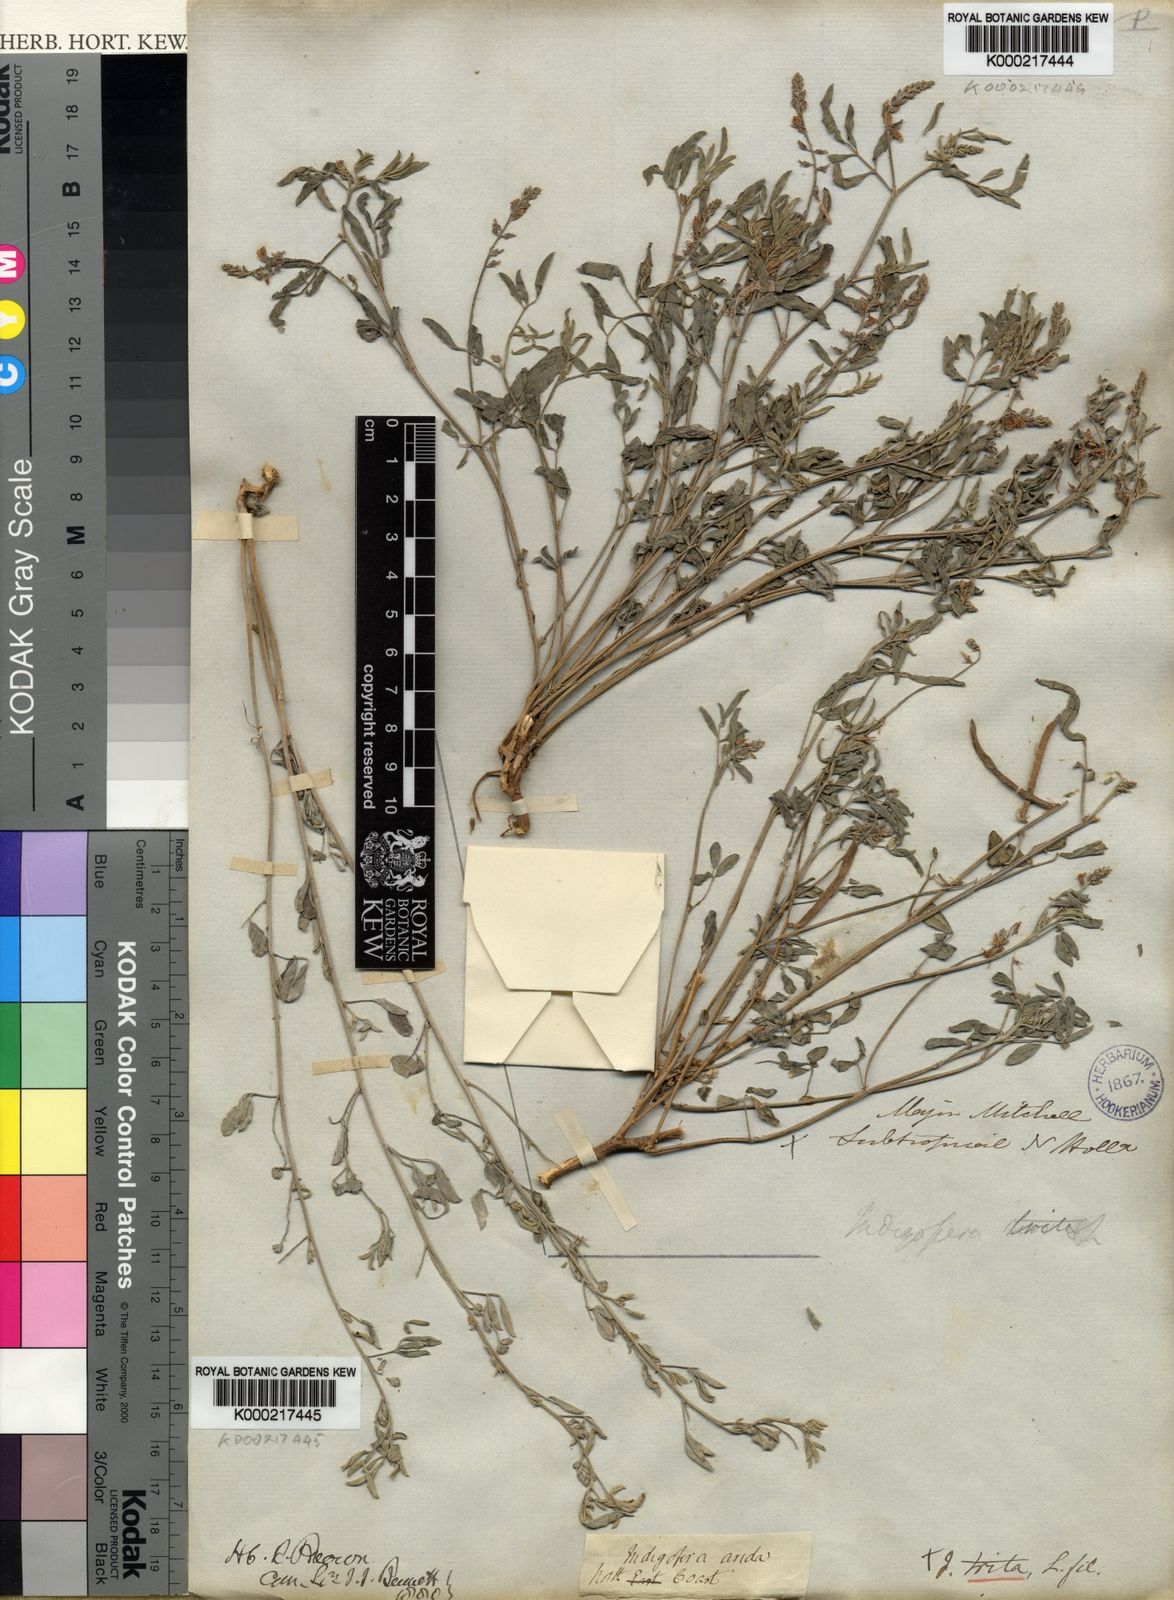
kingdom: Plantae
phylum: Tracheophyta
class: Magnoliopsida
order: Fabales
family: Fabaceae
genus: Indigofera
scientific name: Indigofera trita
